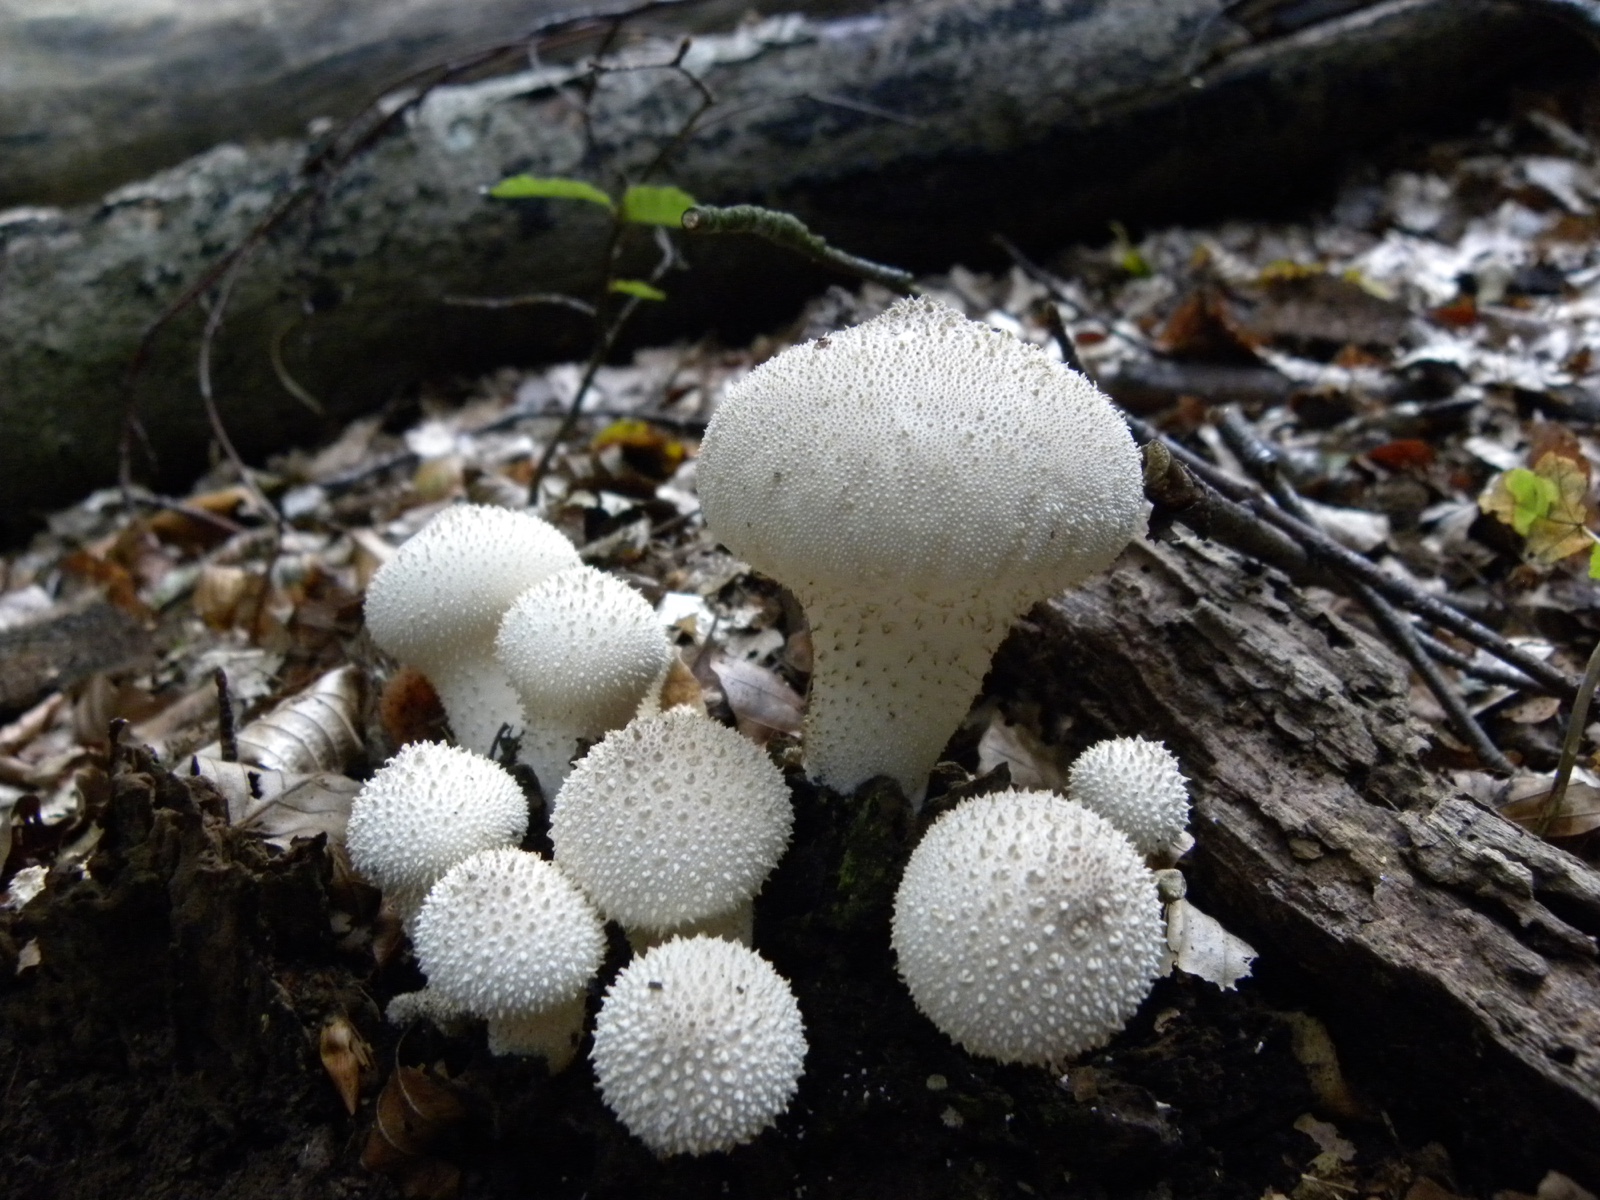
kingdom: Fungi
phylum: Basidiomycota
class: Agaricomycetes
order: Agaricales
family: Lycoperdaceae
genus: Lycoperdon
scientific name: Lycoperdon perlatum
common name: krystal-støvbold
